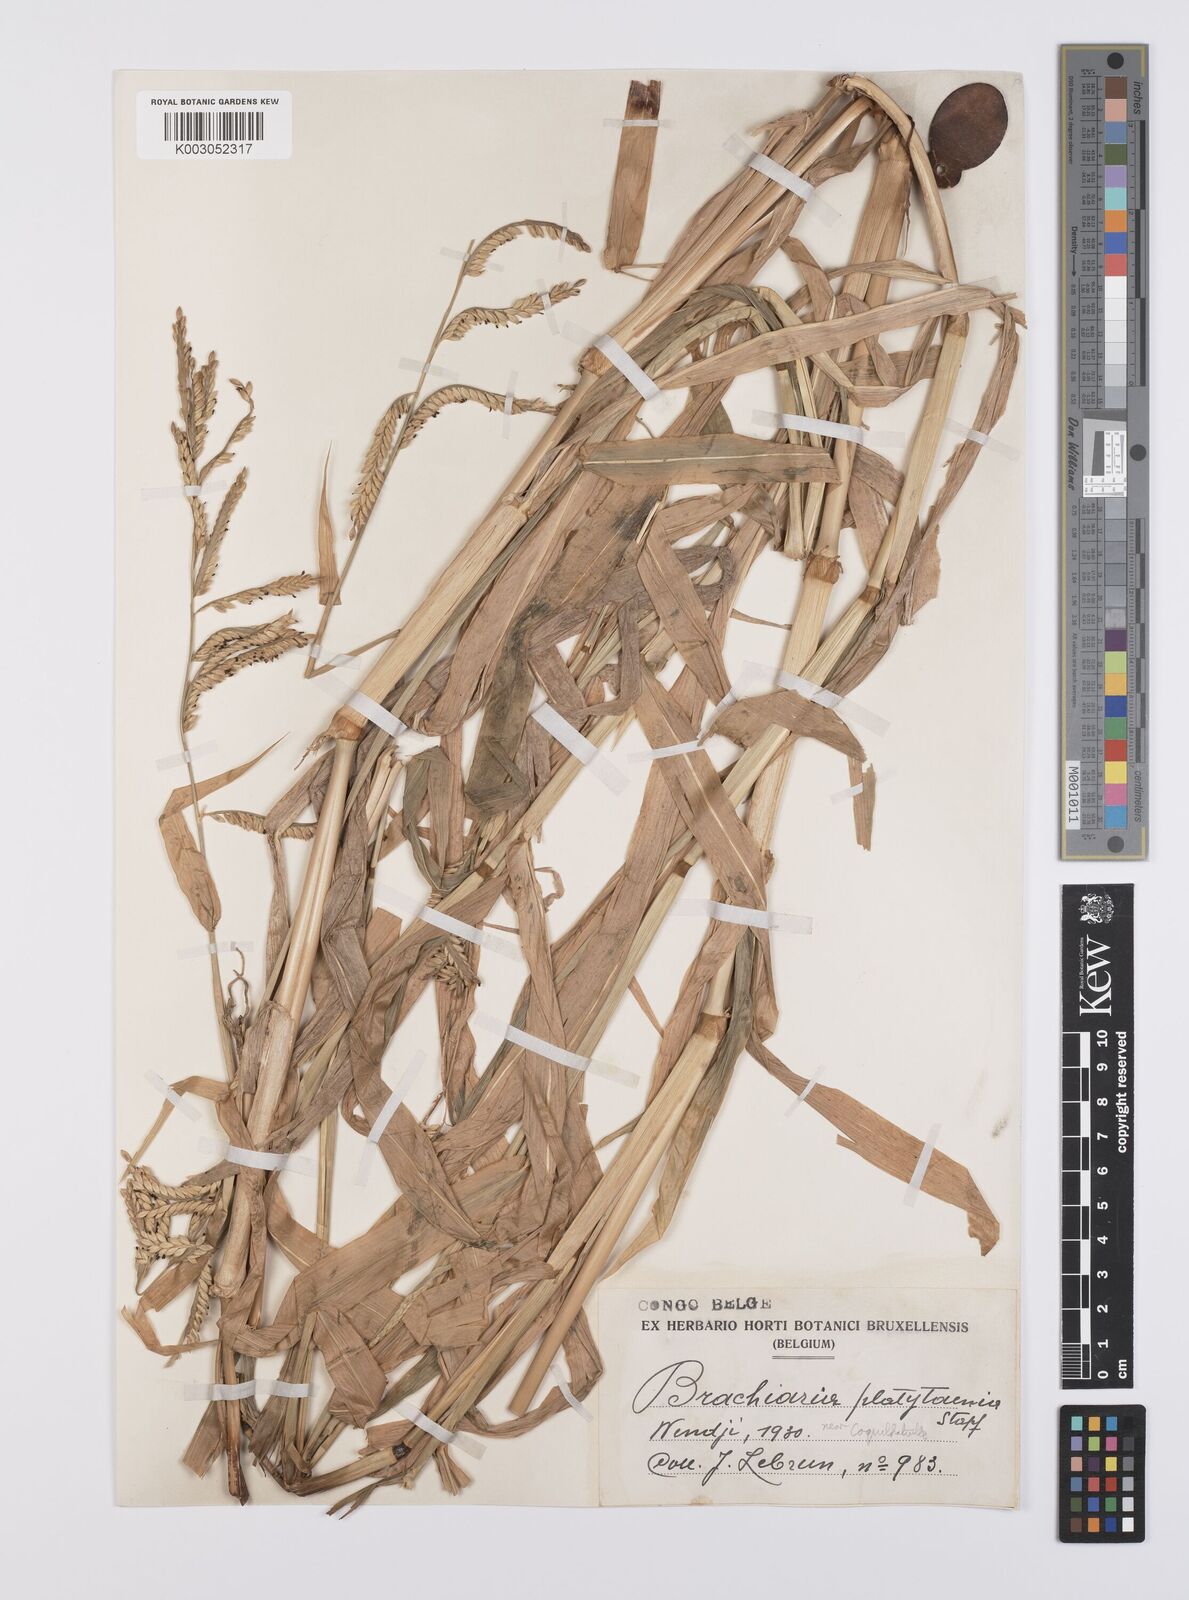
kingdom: Plantae
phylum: Tracheophyta
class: Liliopsida
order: Poales
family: Poaceae
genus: Urochloa
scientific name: Urochloa oligobrachiata
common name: Weak signalgrass
